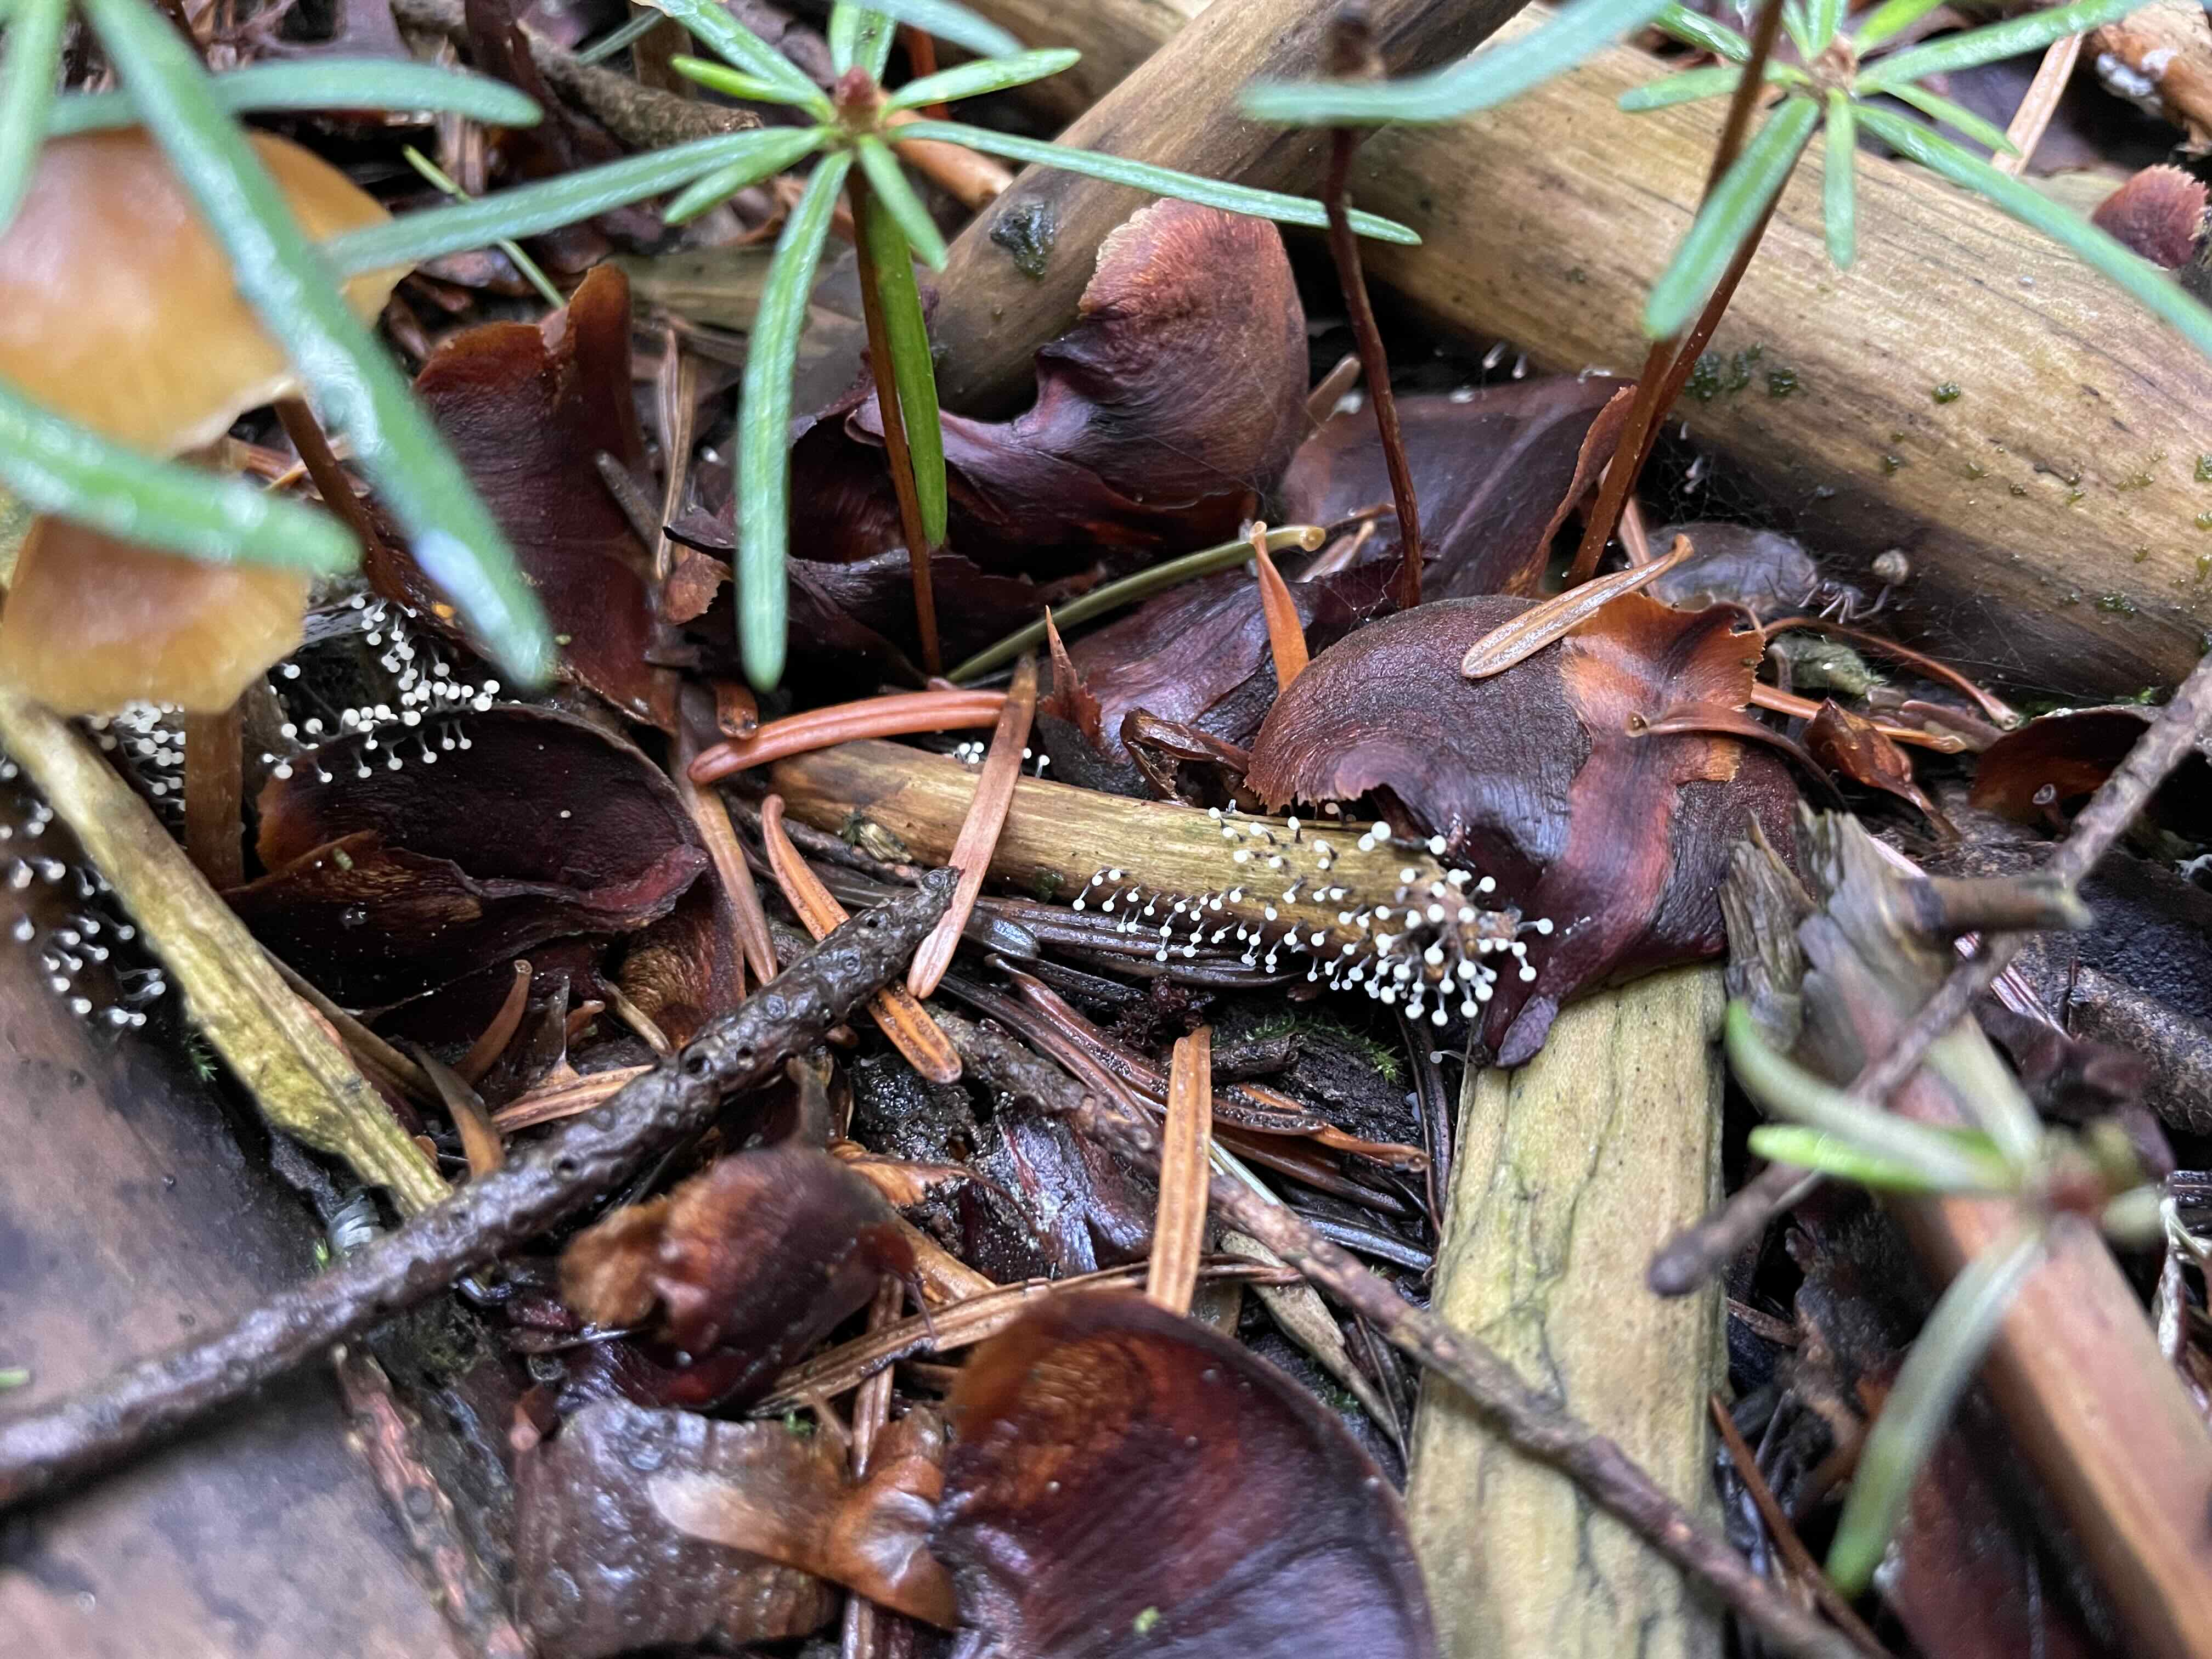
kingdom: Protozoa
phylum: Mycetozoa
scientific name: Mycetozoa
